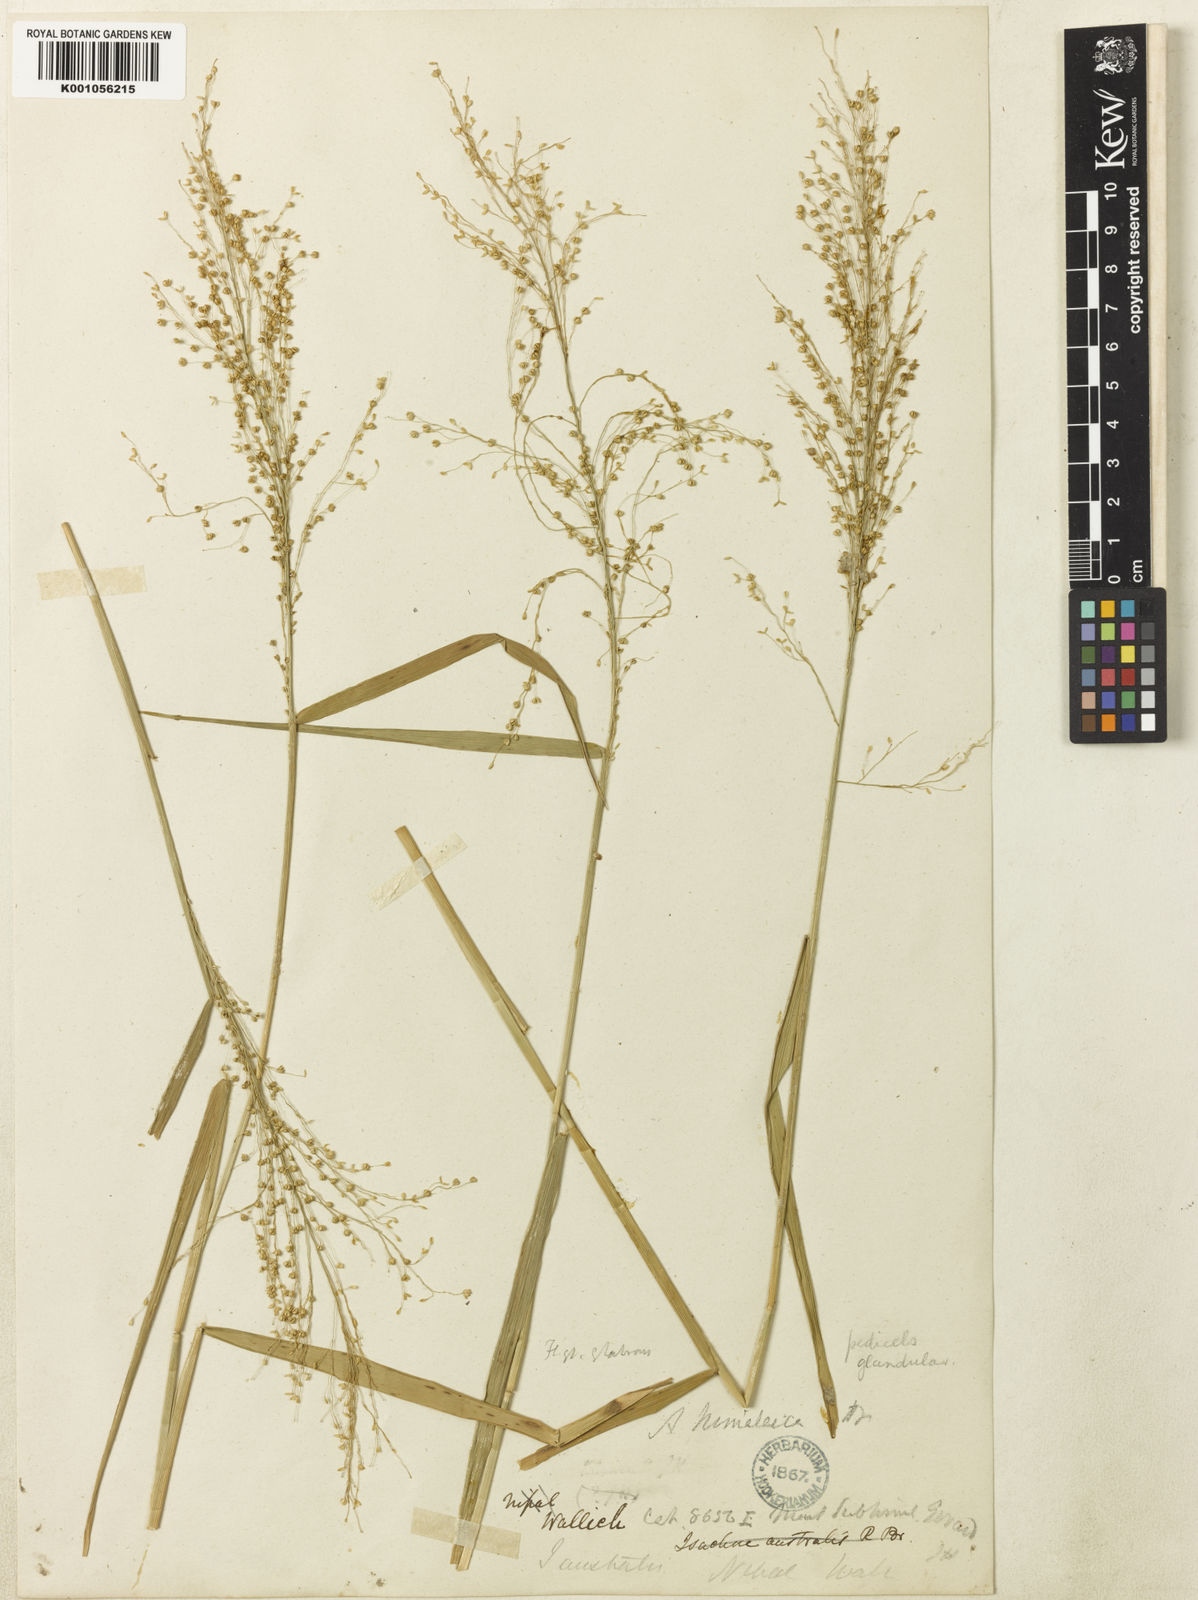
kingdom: Plantae
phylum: Tracheophyta
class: Liliopsida
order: Poales
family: Poaceae
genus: Isachne
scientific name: Isachne himalaica
